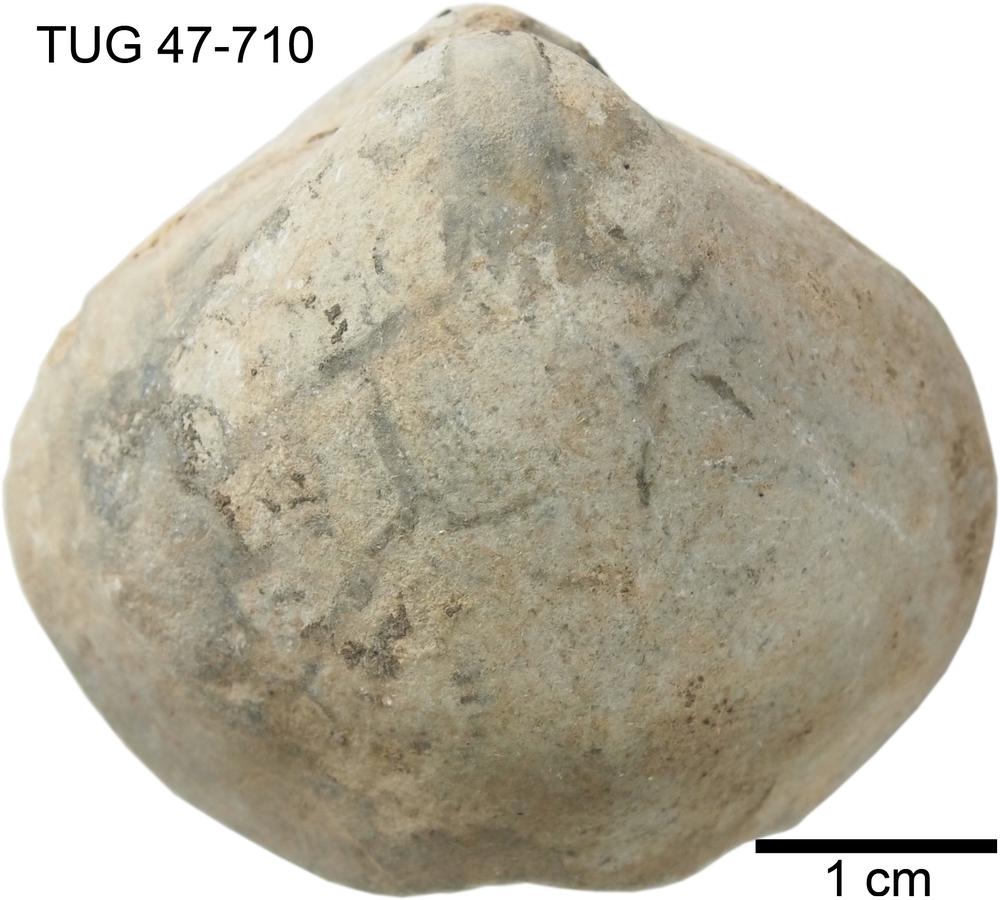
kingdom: Animalia
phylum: Brachiopoda
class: Rhynchonellata
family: Porambonitidae
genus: Porambonites
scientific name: Porambonites
